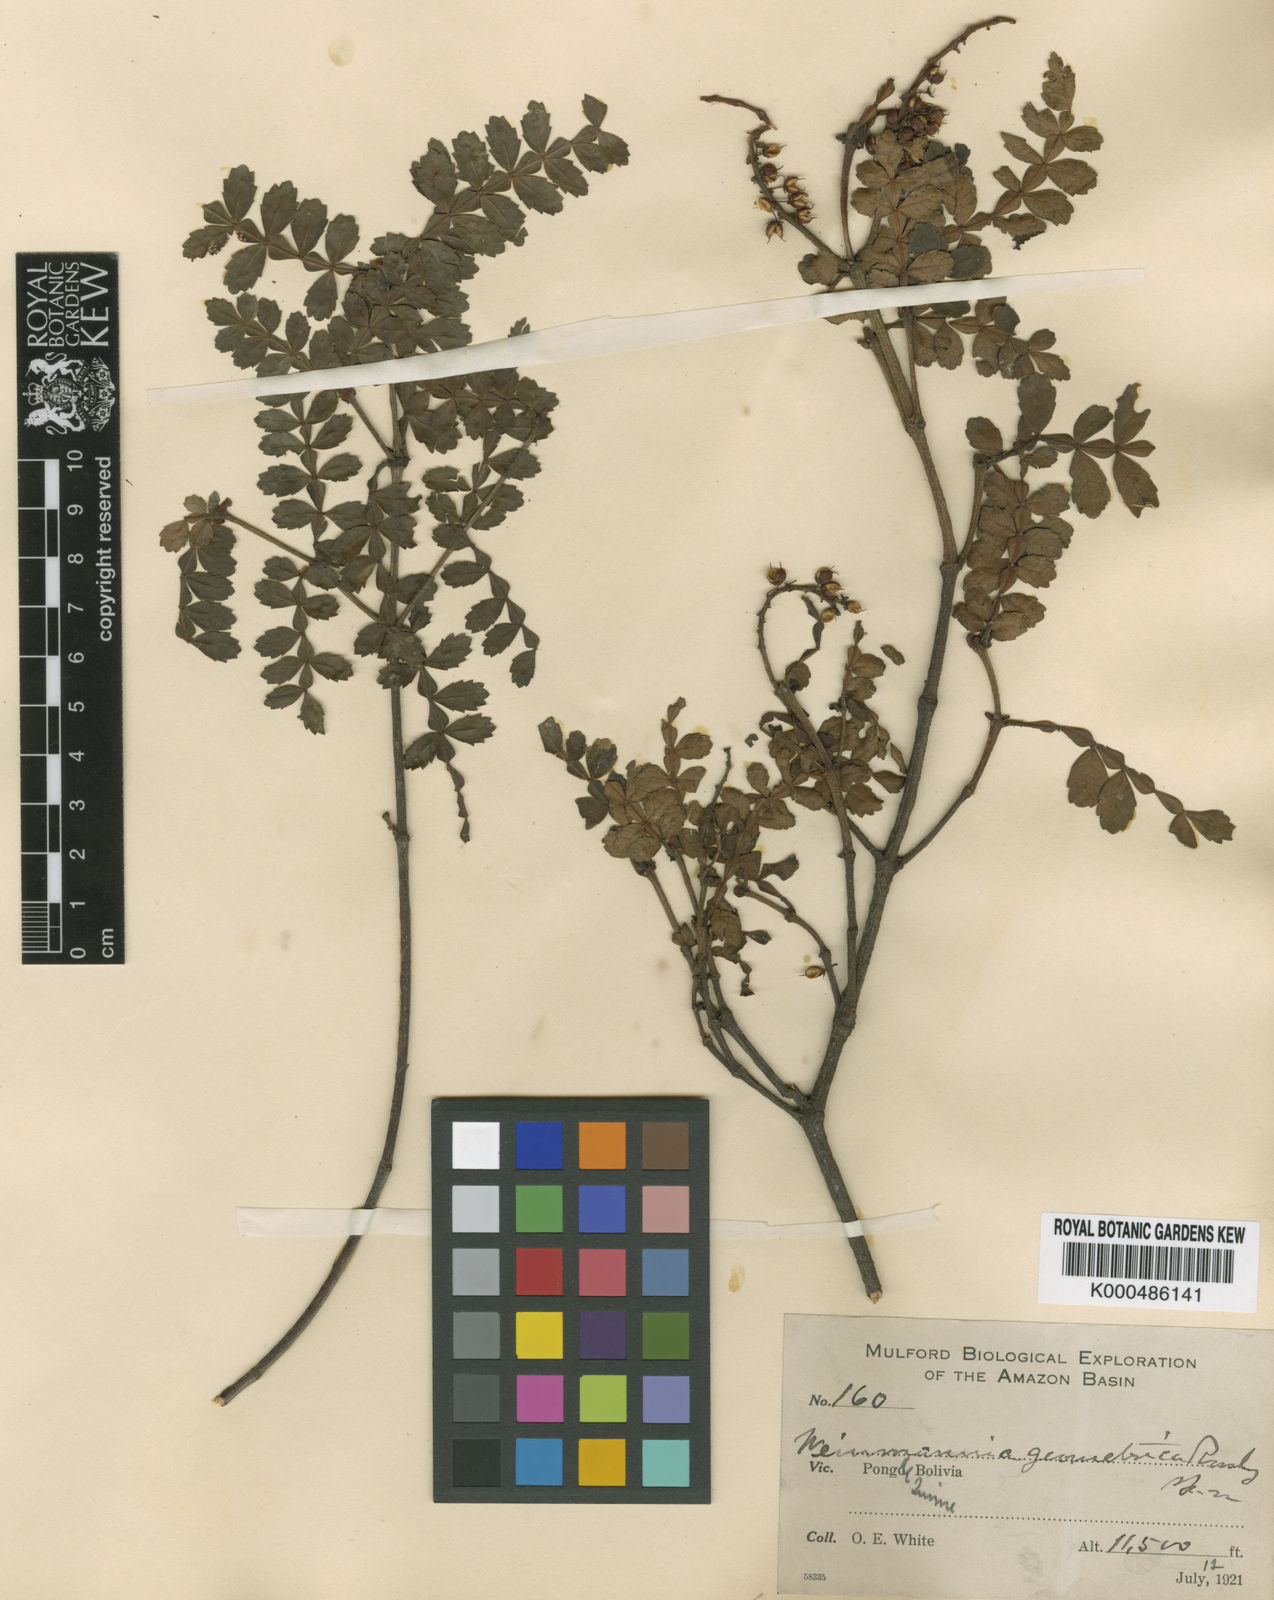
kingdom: Plantae
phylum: Tracheophyta
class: Magnoliopsida
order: Oxalidales
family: Cunoniaceae
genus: Weinmannia
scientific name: Weinmannia geometrica
